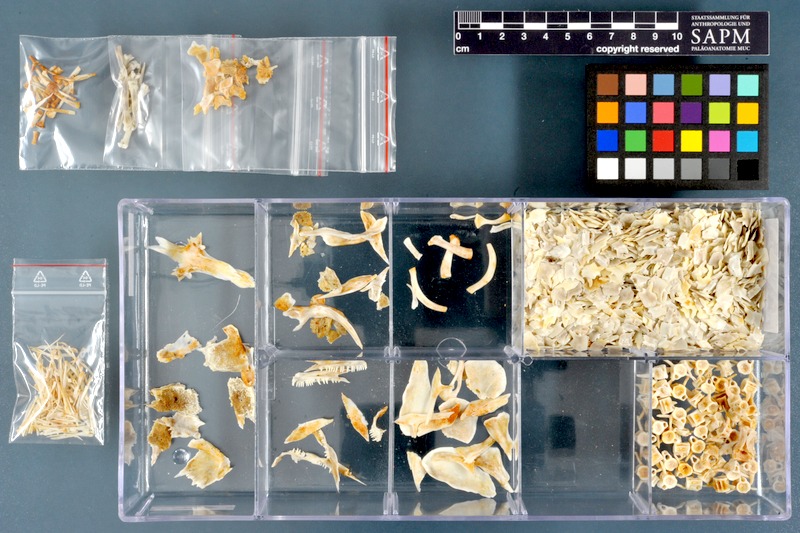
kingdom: Animalia
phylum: Chordata
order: Polypteriformes
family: Polypteridae
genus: Polypterus
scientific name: Polypterus
